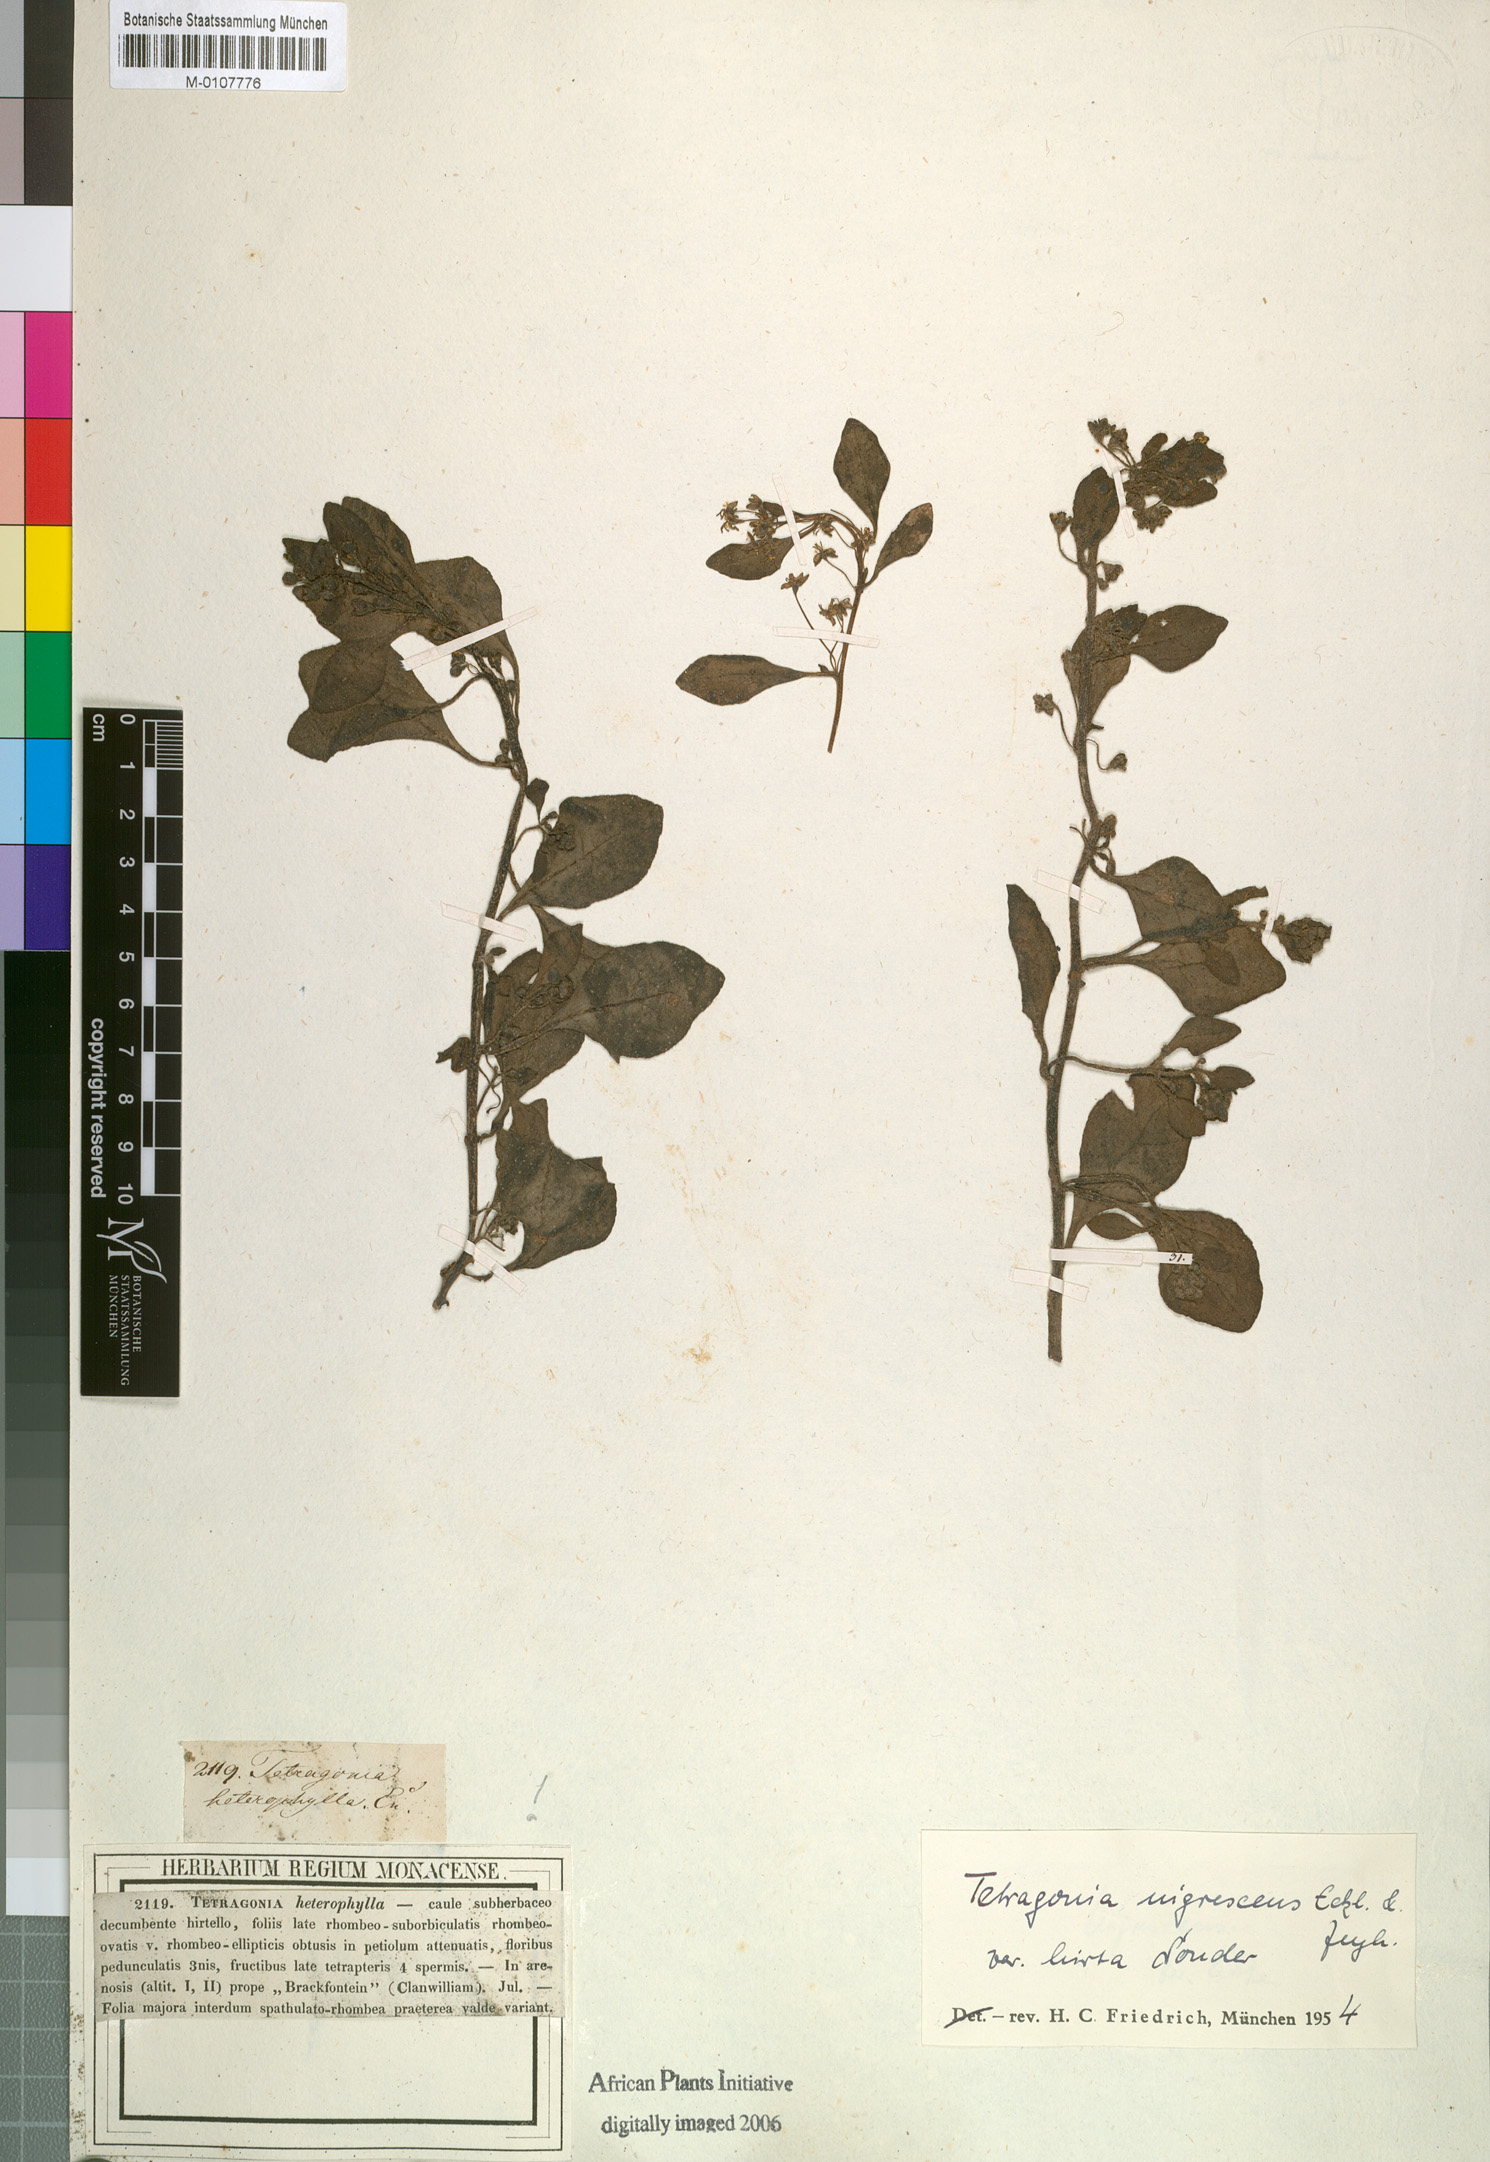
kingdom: Plantae
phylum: Tracheophyta
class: Magnoliopsida
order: Caryophyllales
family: Aizoaceae
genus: Tetragonia
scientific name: Tetragonia nigrescens
